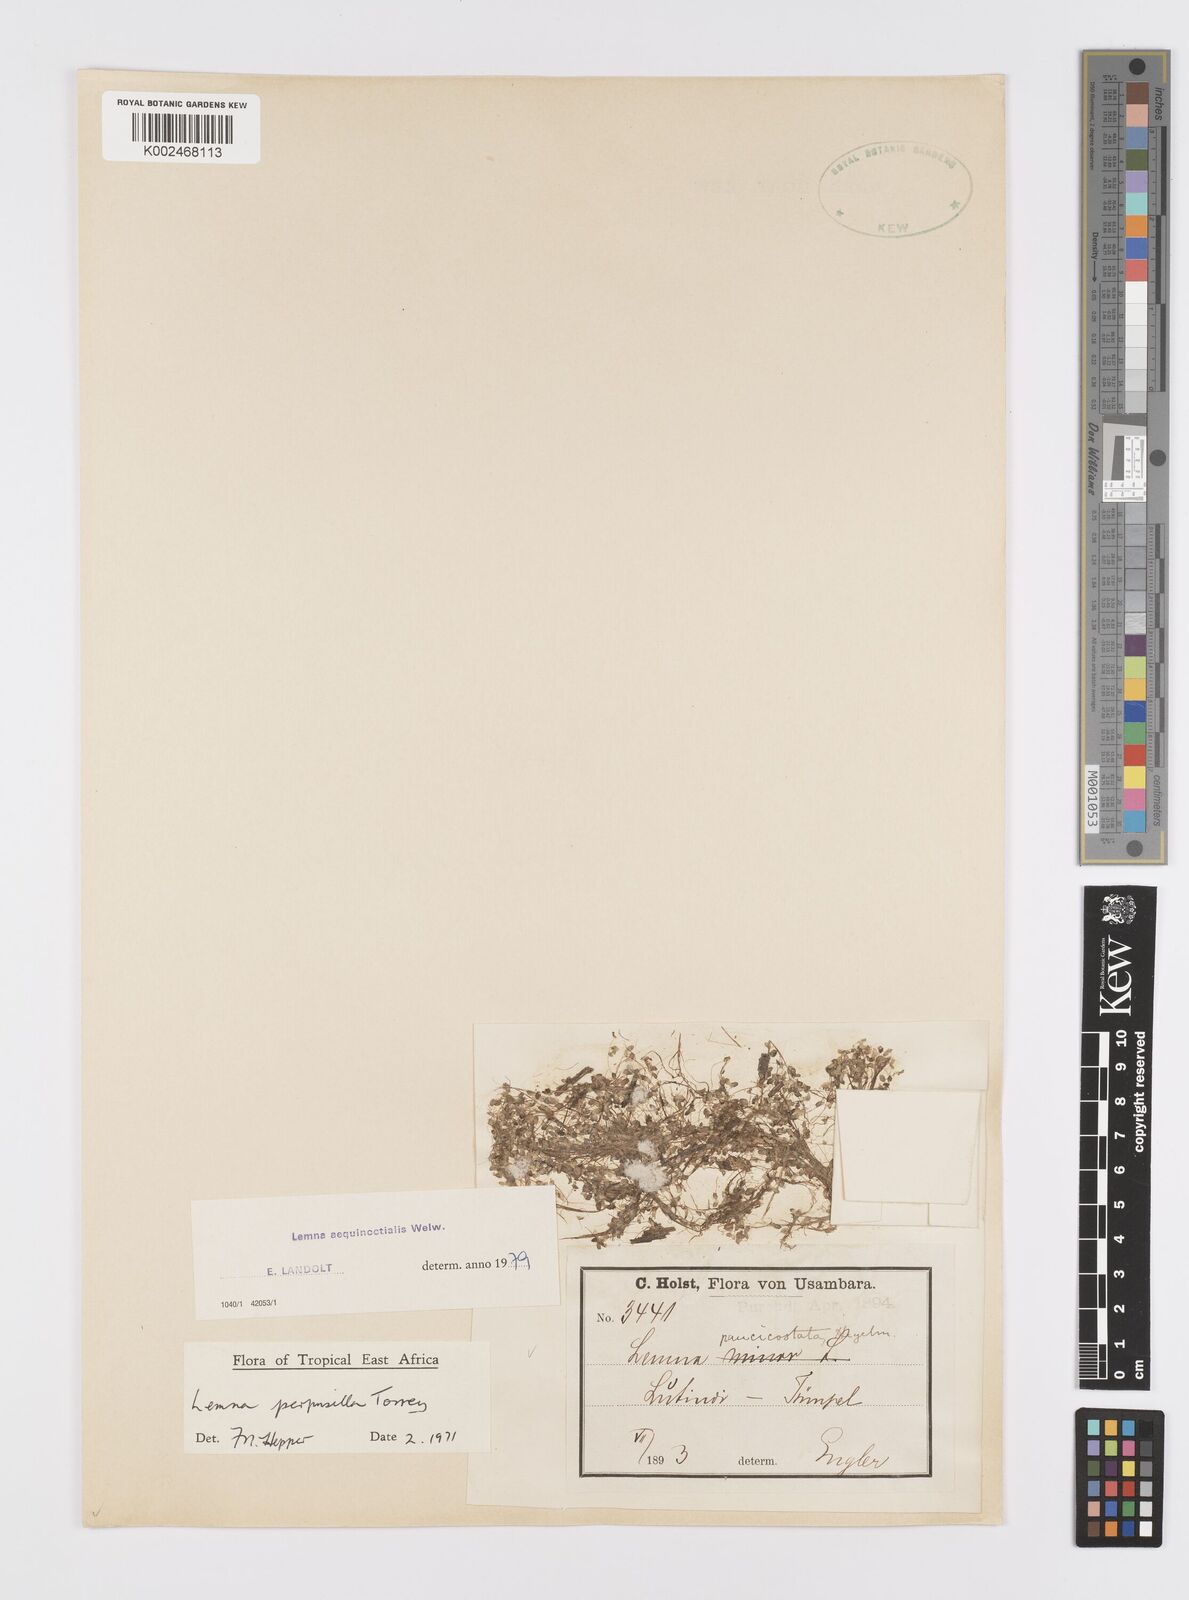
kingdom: Plantae
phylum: Tracheophyta
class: Liliopsida
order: Alismatales
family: Araceae
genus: Lemna
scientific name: Lemna aequinoctialis
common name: Duckweed
